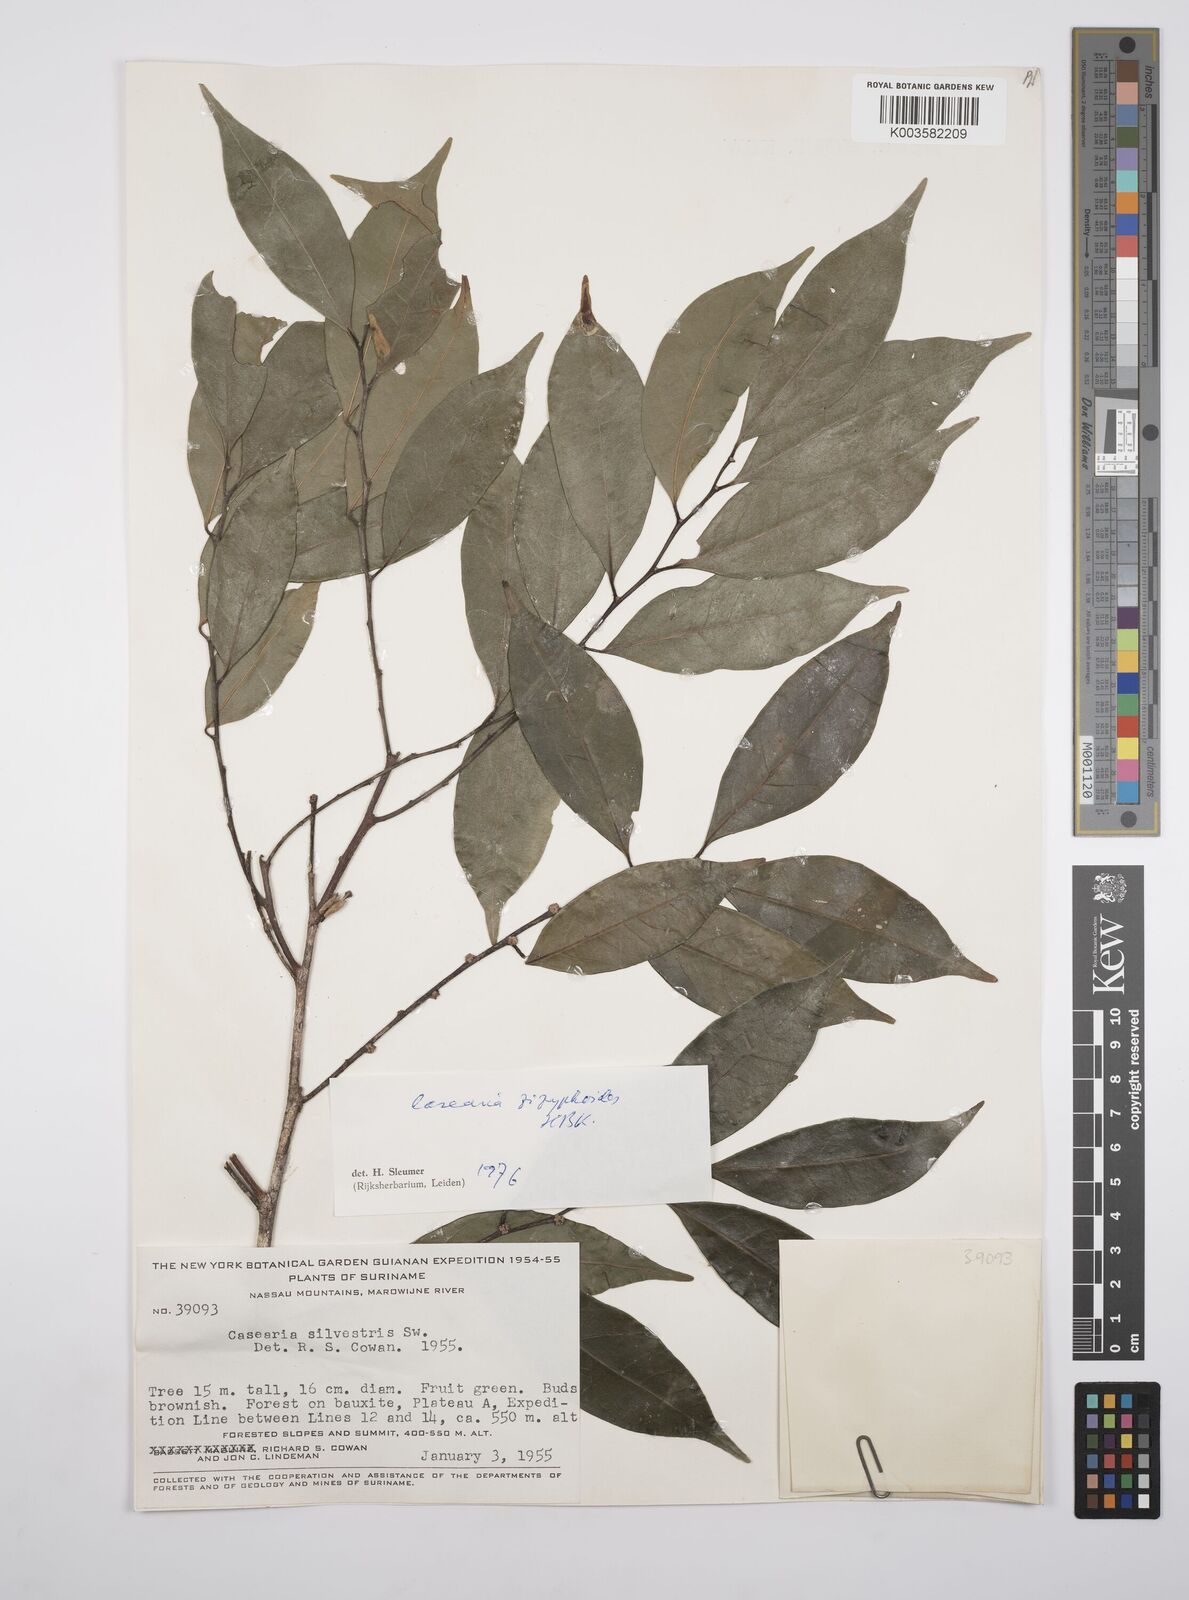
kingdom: Plantae
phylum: Tracheophyta
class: Magnoliopsida
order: Malpighiales
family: Salicaceae
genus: Casearia
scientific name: Casearia zizyphoides
